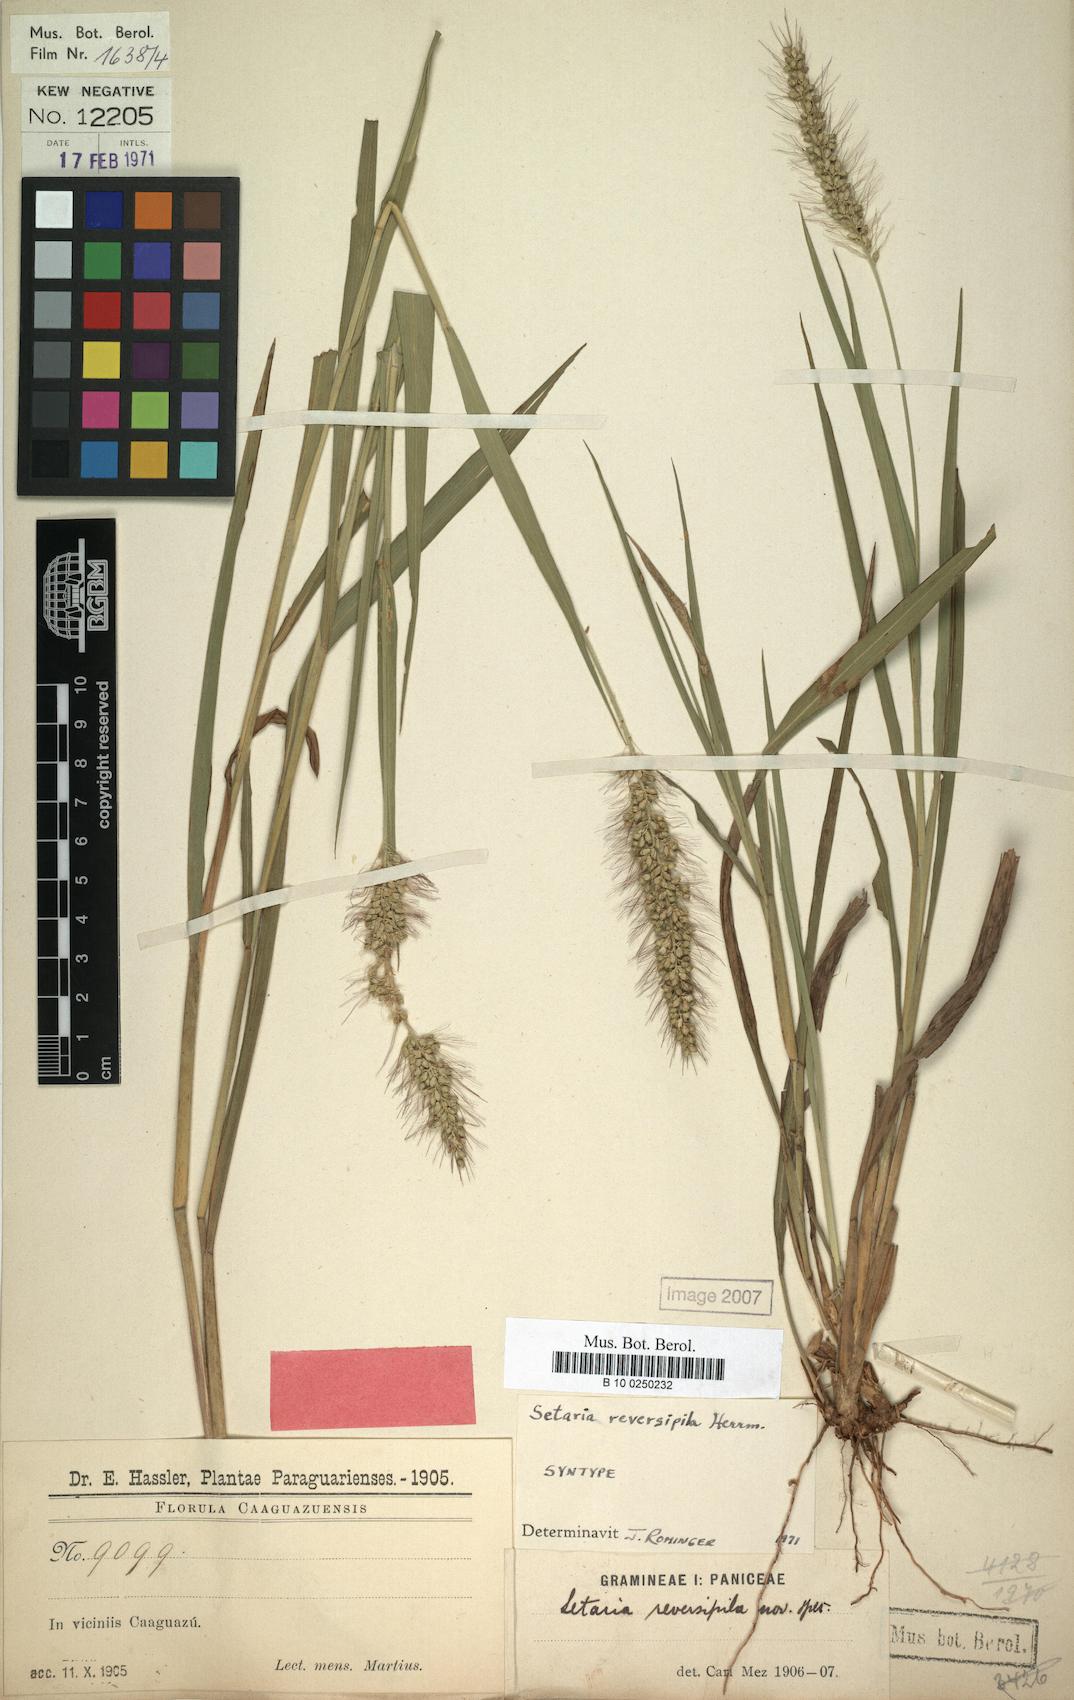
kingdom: Plantae
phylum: Tracheophyta
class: Liliopsida
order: Poales
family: Poaceae
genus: Setaria
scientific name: Setaria vulpiseta
